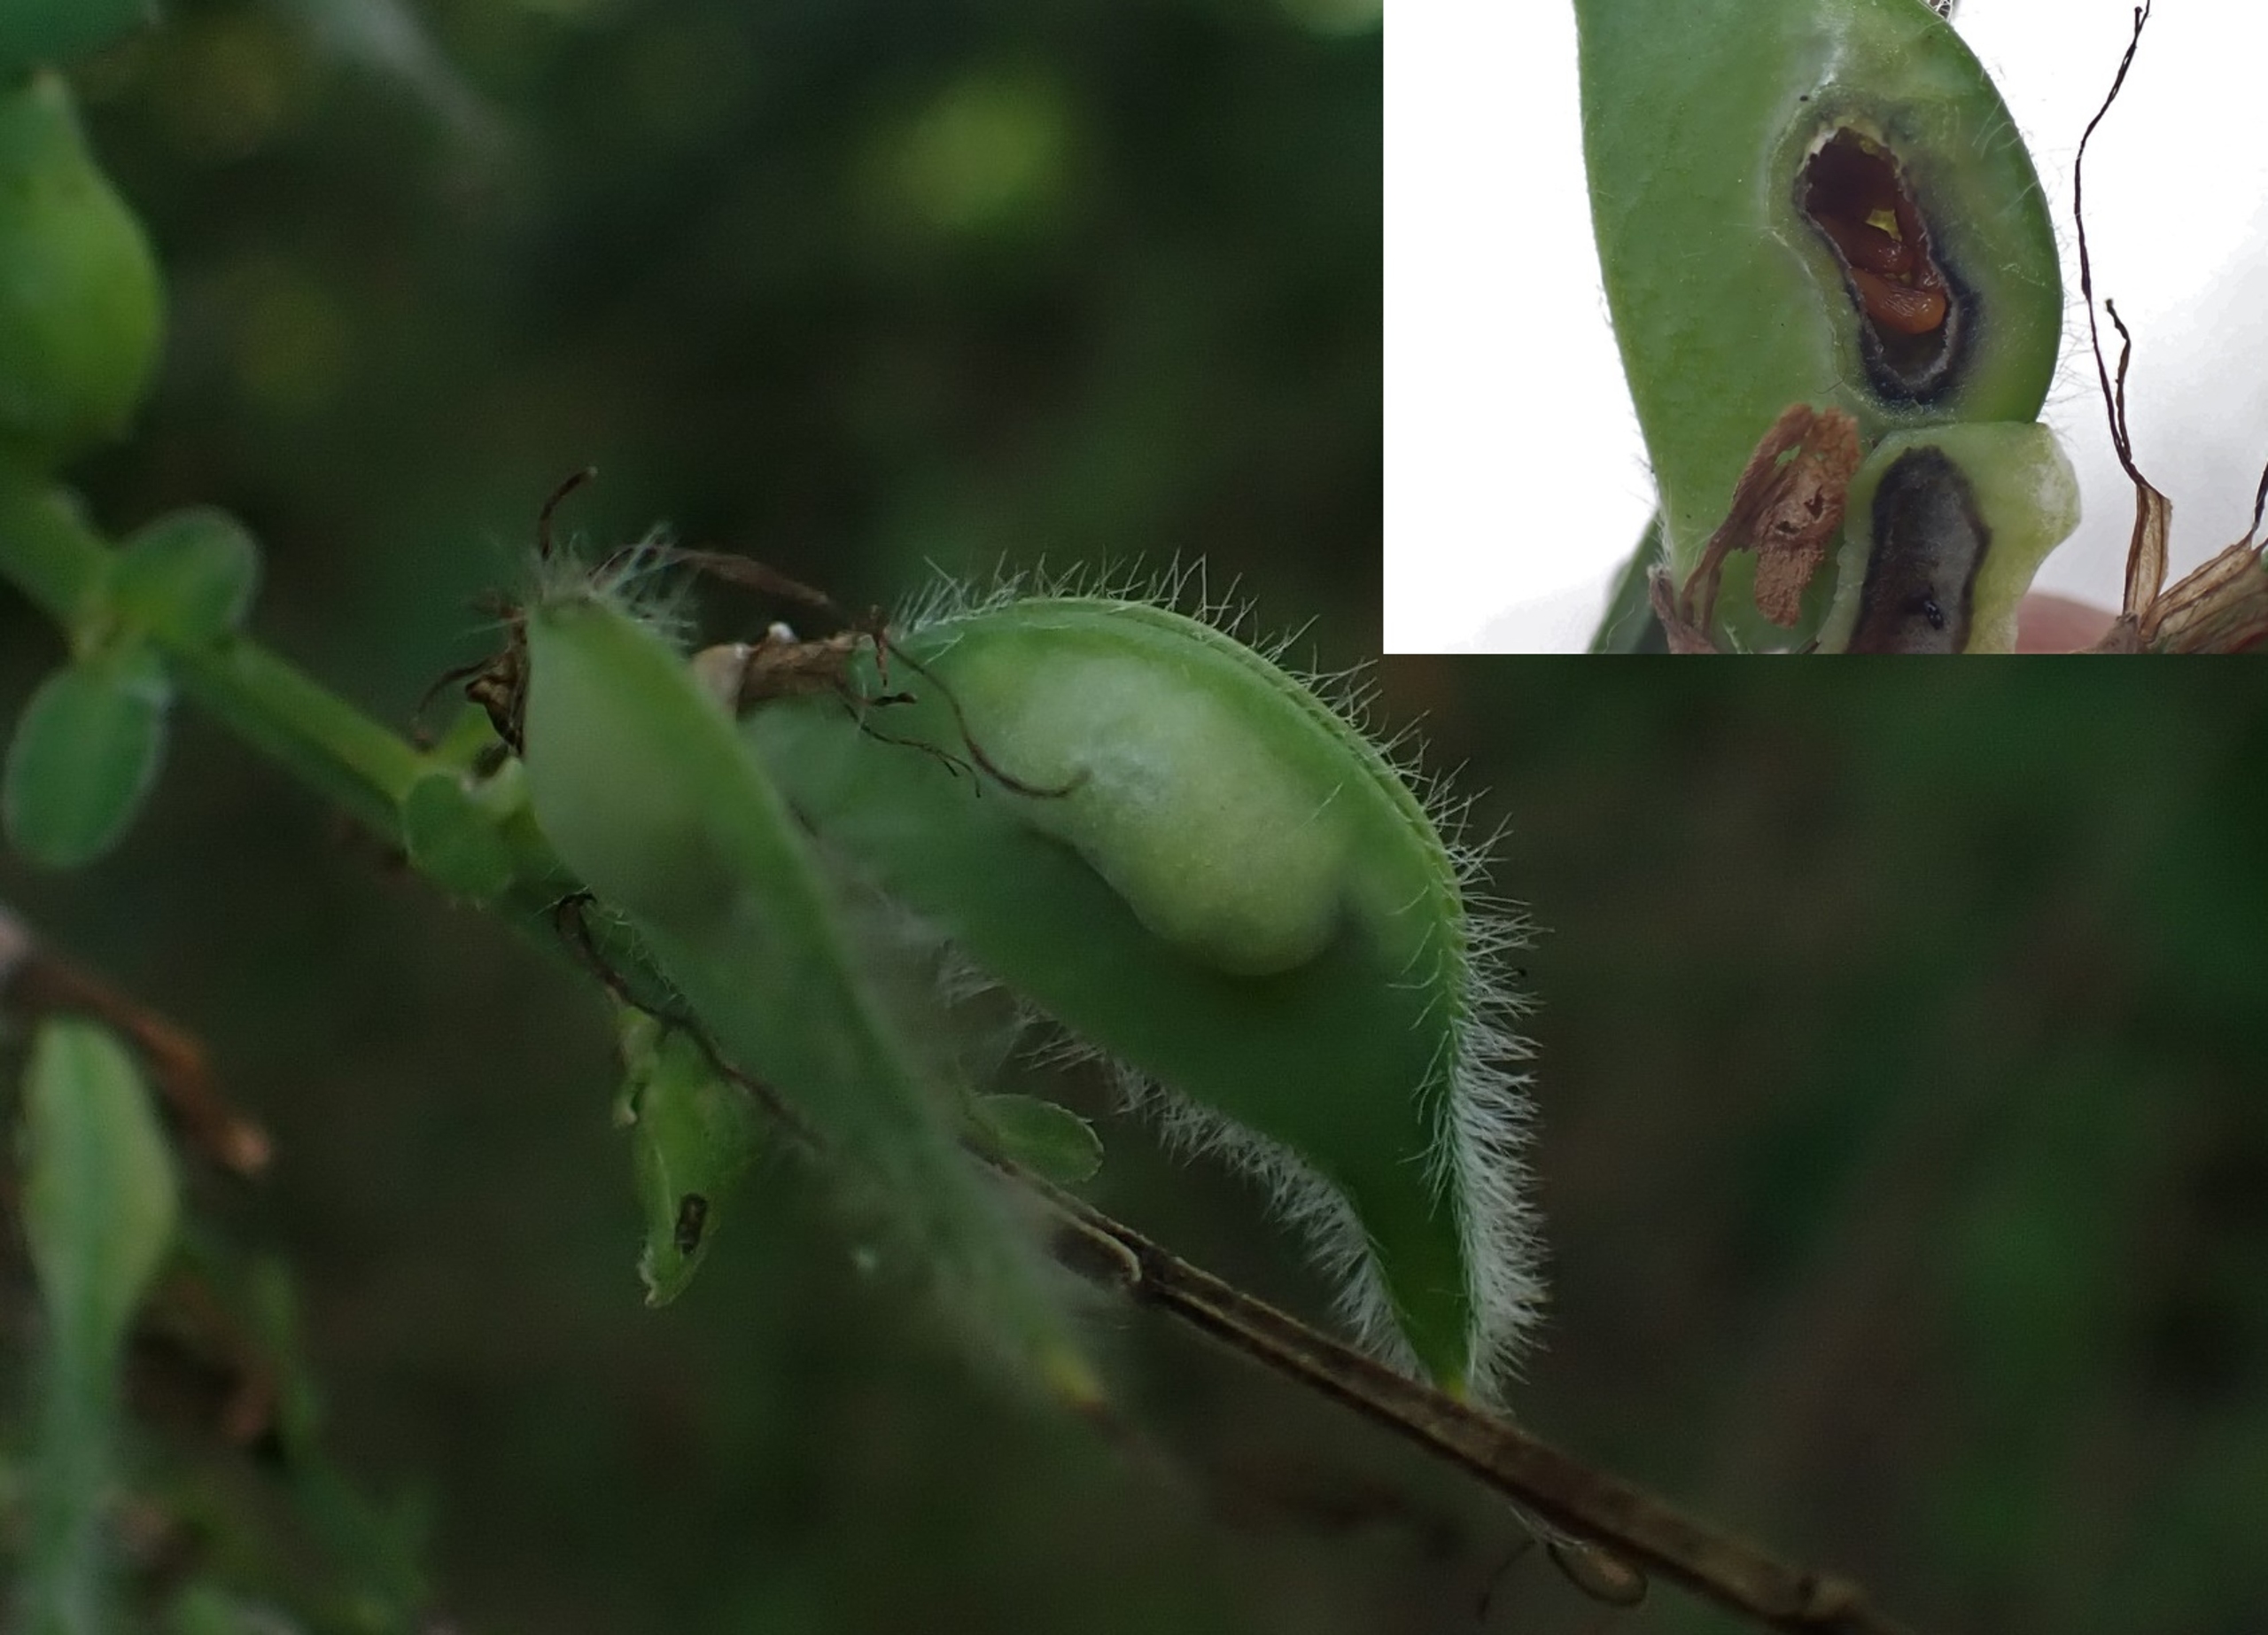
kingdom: Animalia
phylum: Arthropoda
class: Insecta
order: Diptera
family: Cecidomyiidae
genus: Asphondylia
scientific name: Asphondylia sarothamni
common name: Gyvelmycelgalmyg
